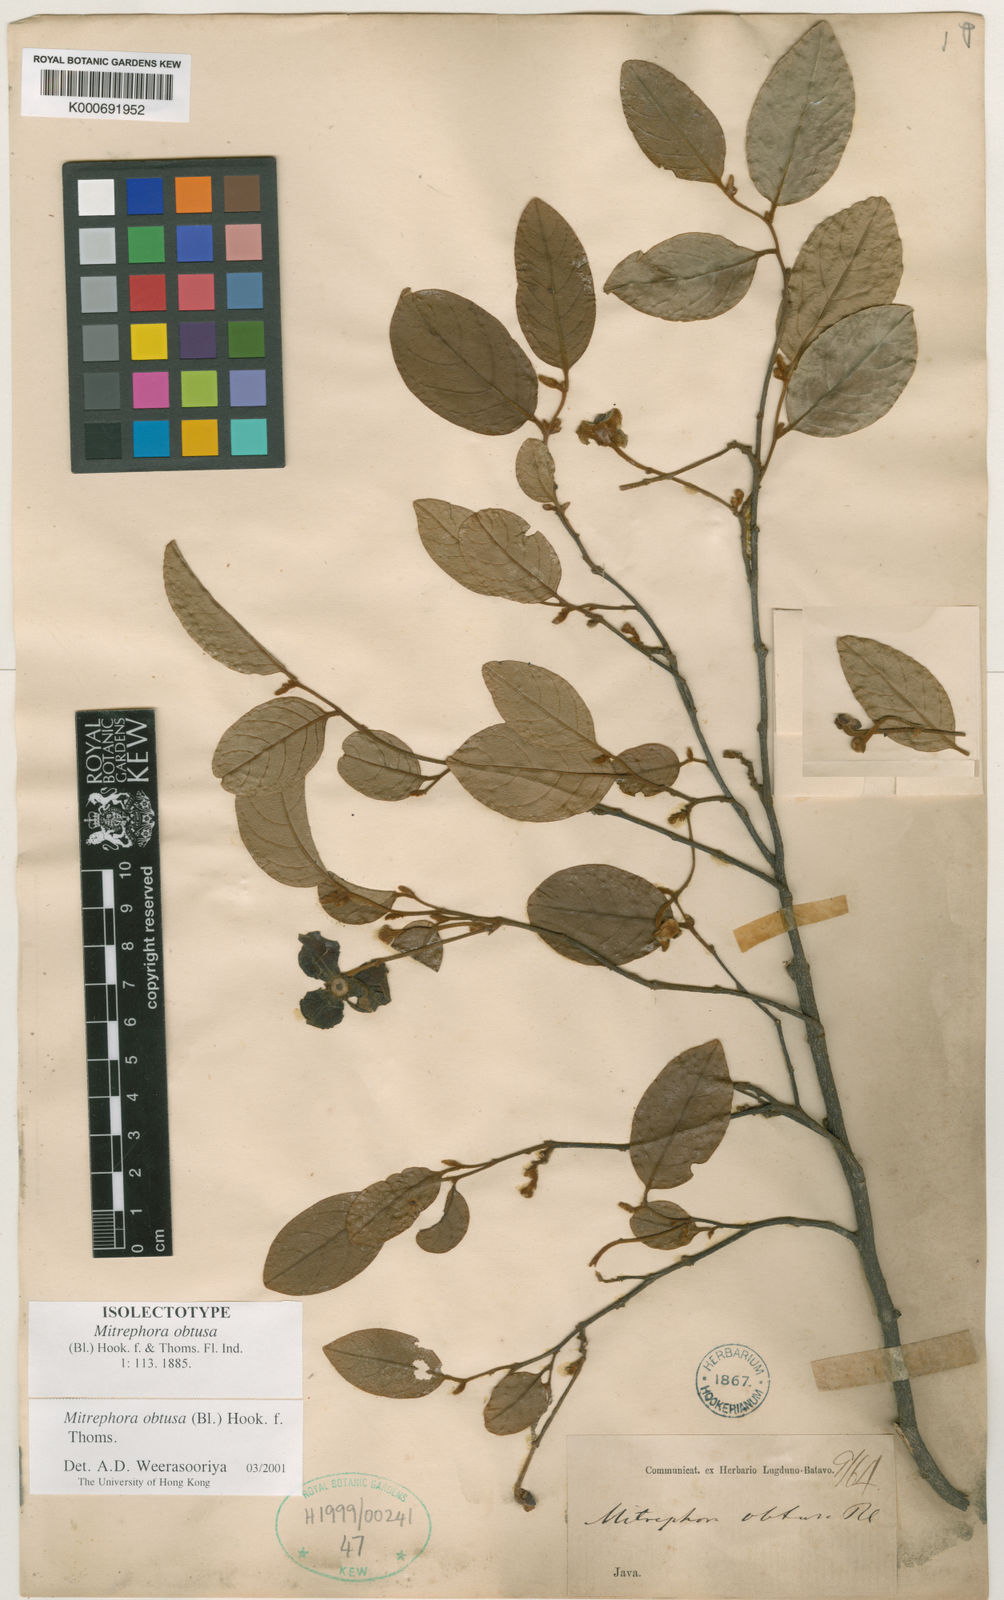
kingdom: Plantae
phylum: Tracheophyta
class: Magnoliopsida
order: Magnoliales
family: Annonaceae
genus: Mitrephora
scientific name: Mitrephora obtusa
